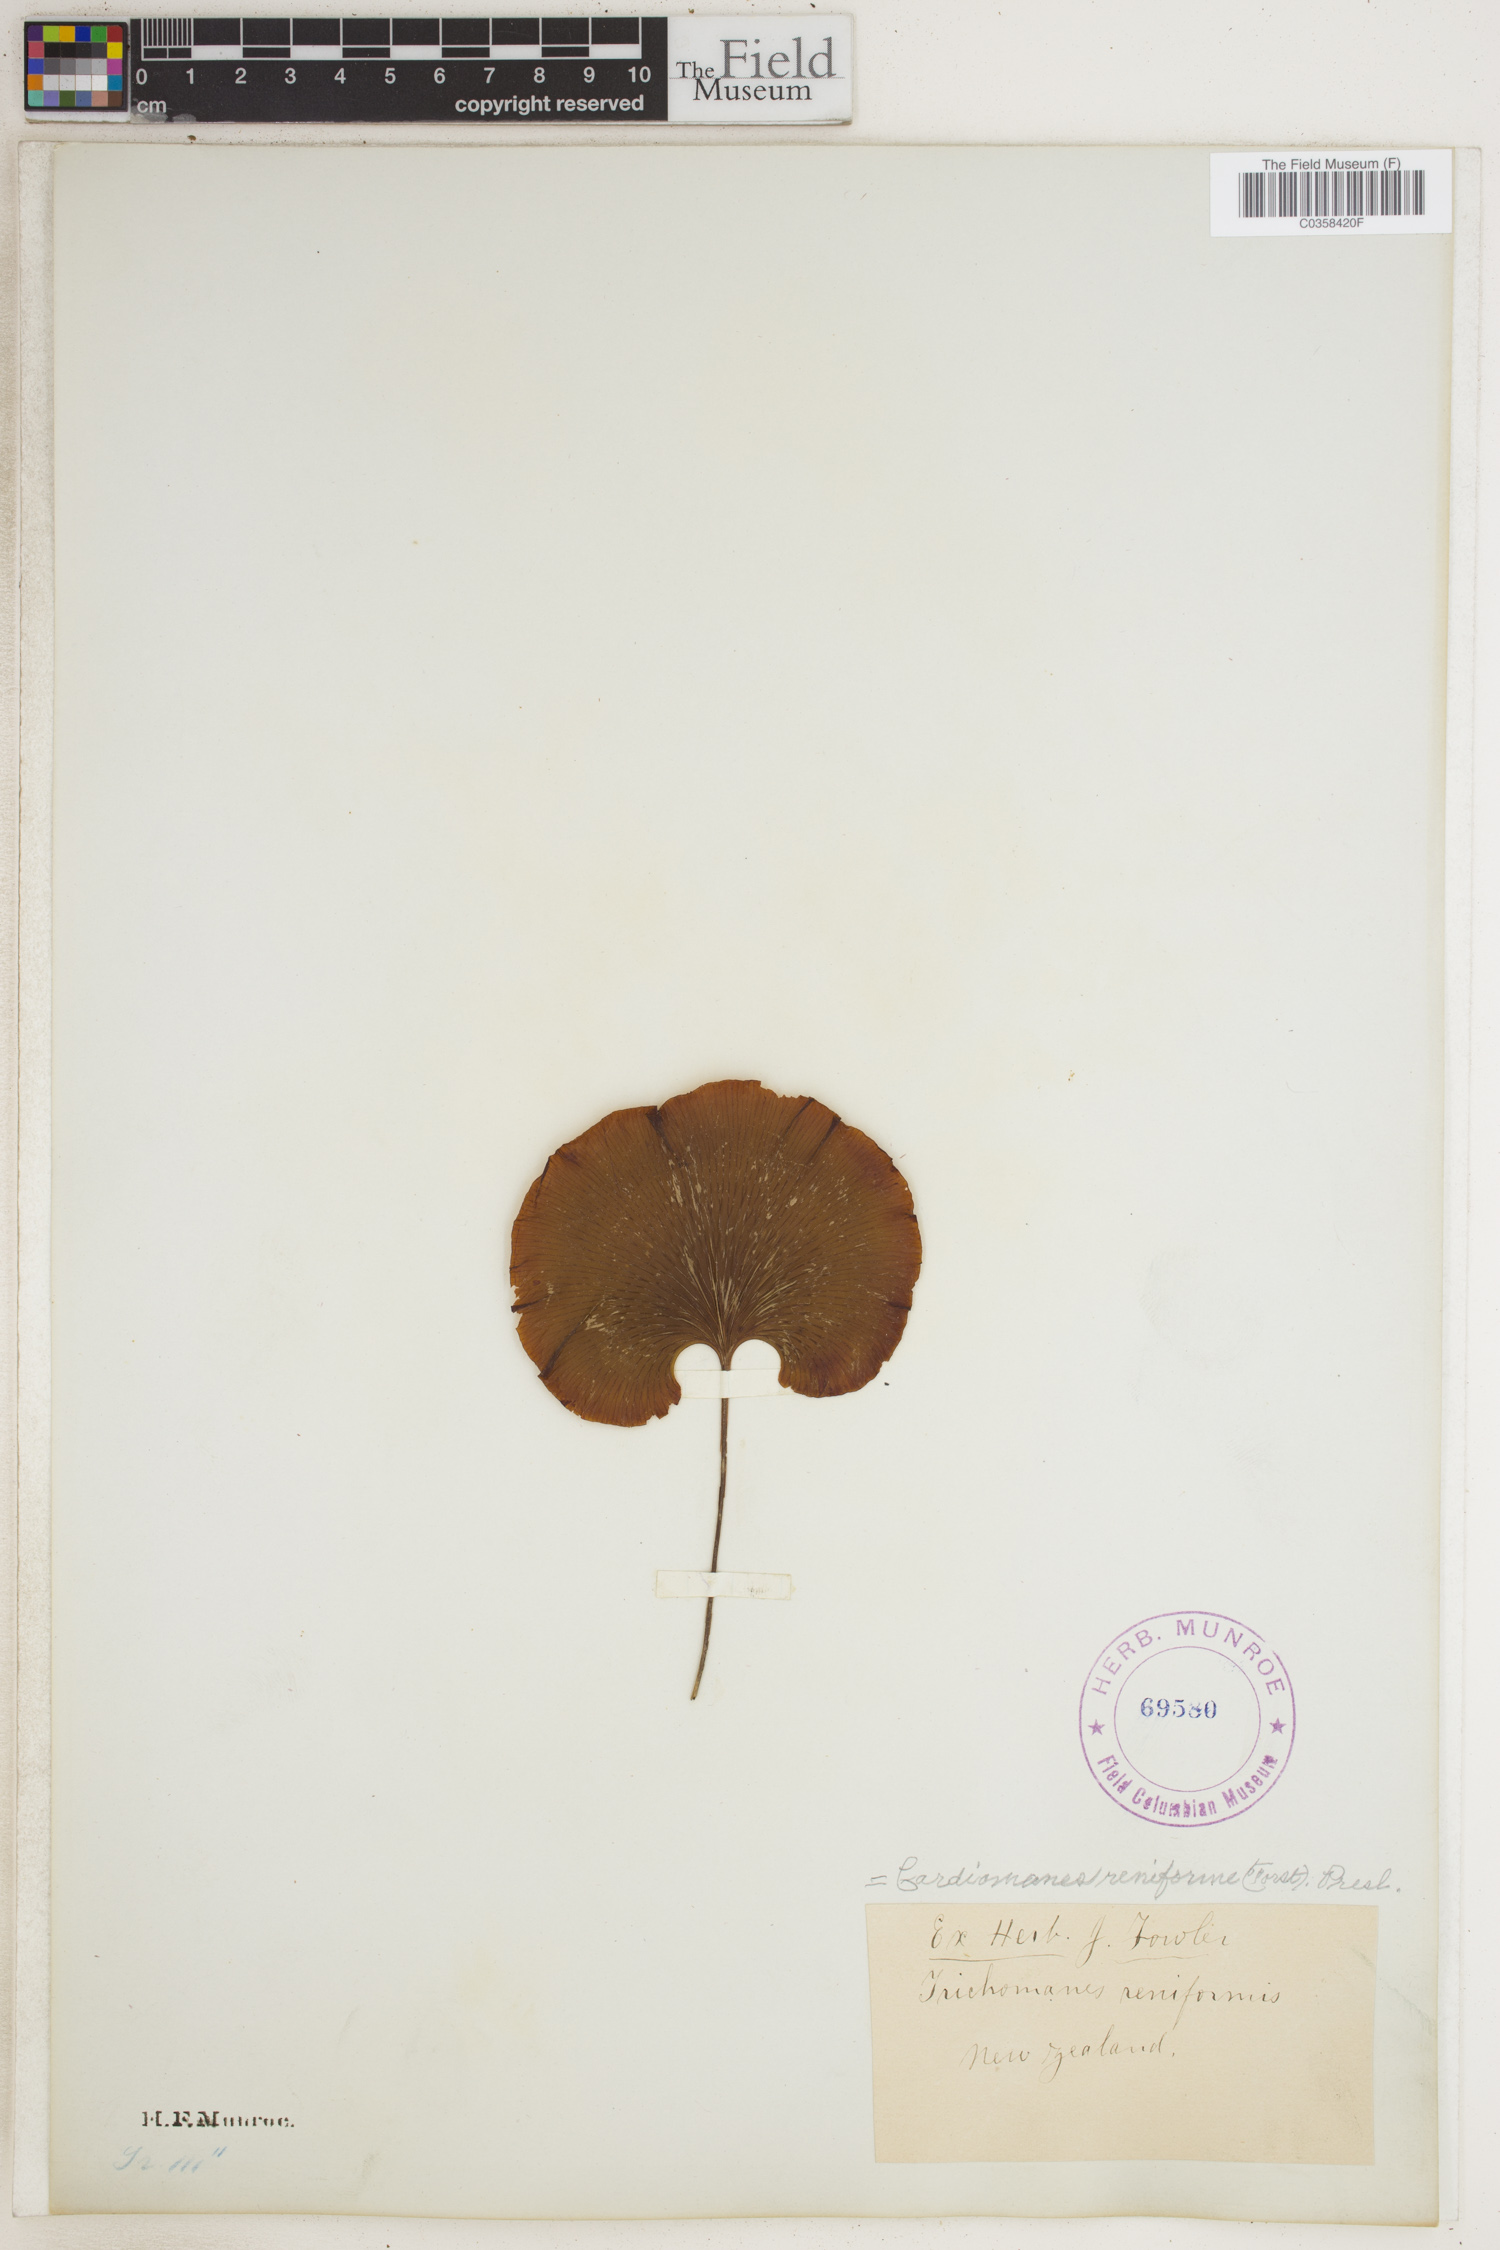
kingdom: Plantae
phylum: Tracheophyta
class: Polypodiopsida
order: Hymenophyllales
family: Hymenophyllaceae
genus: Hymenophyllum
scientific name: Hymenophyllum nephrophyllum
